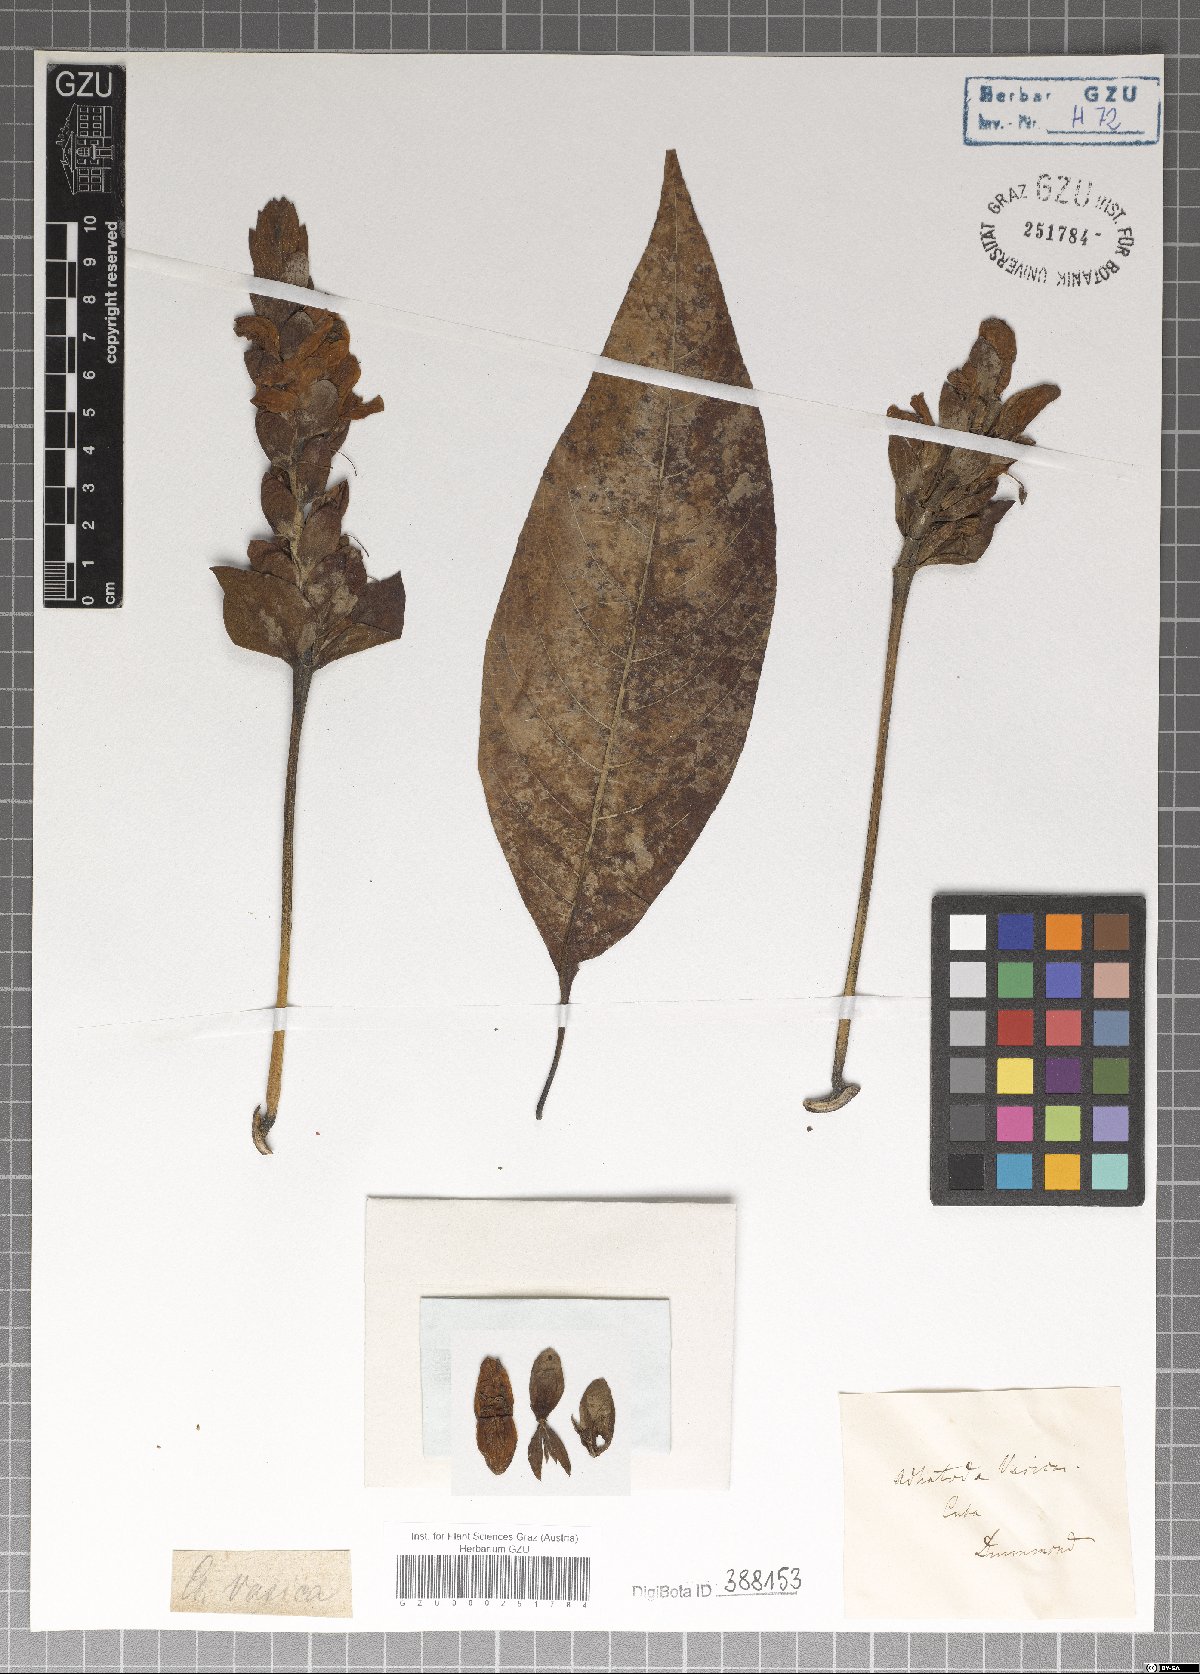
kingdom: Plantae
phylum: Tracheophyta
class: Magnoliopsida
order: Lamiales
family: Acanthaceae
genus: Justicia
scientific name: Justicia adhatoda
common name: Malabar nut
